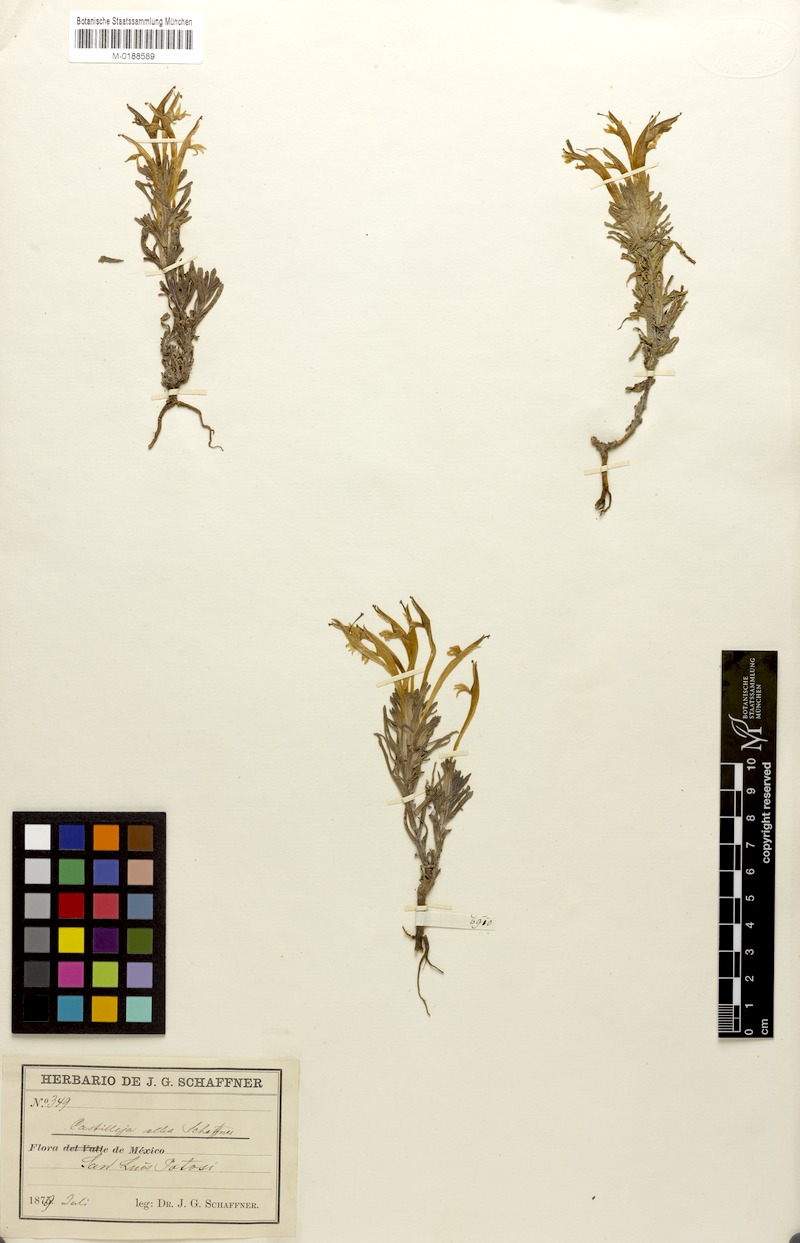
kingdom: Plantae
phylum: Tracheophyta
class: Magnoliopsida
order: Lamiales
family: Orobanchaceae
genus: Castilleja
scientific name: Castilleja mexicana
